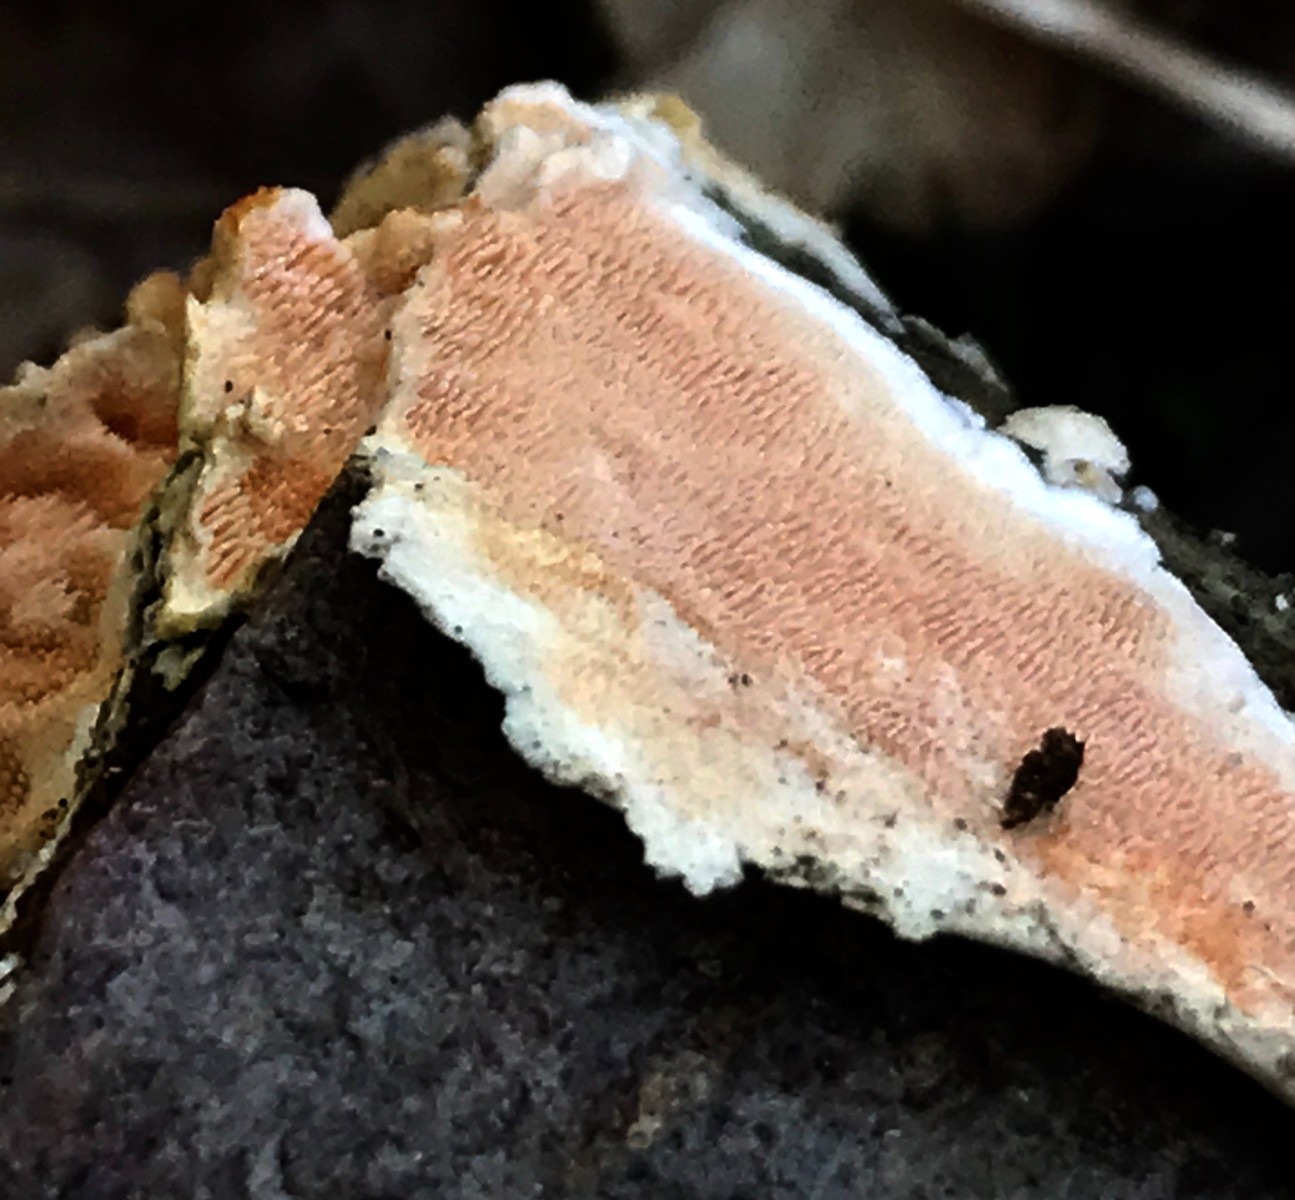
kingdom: Fungi
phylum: Basidiomycota
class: Agaricomycetes
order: Polyporales
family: Steccherinaceae
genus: Steccherinum
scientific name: Steccherinum ochraceum
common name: almindelig skønpig
